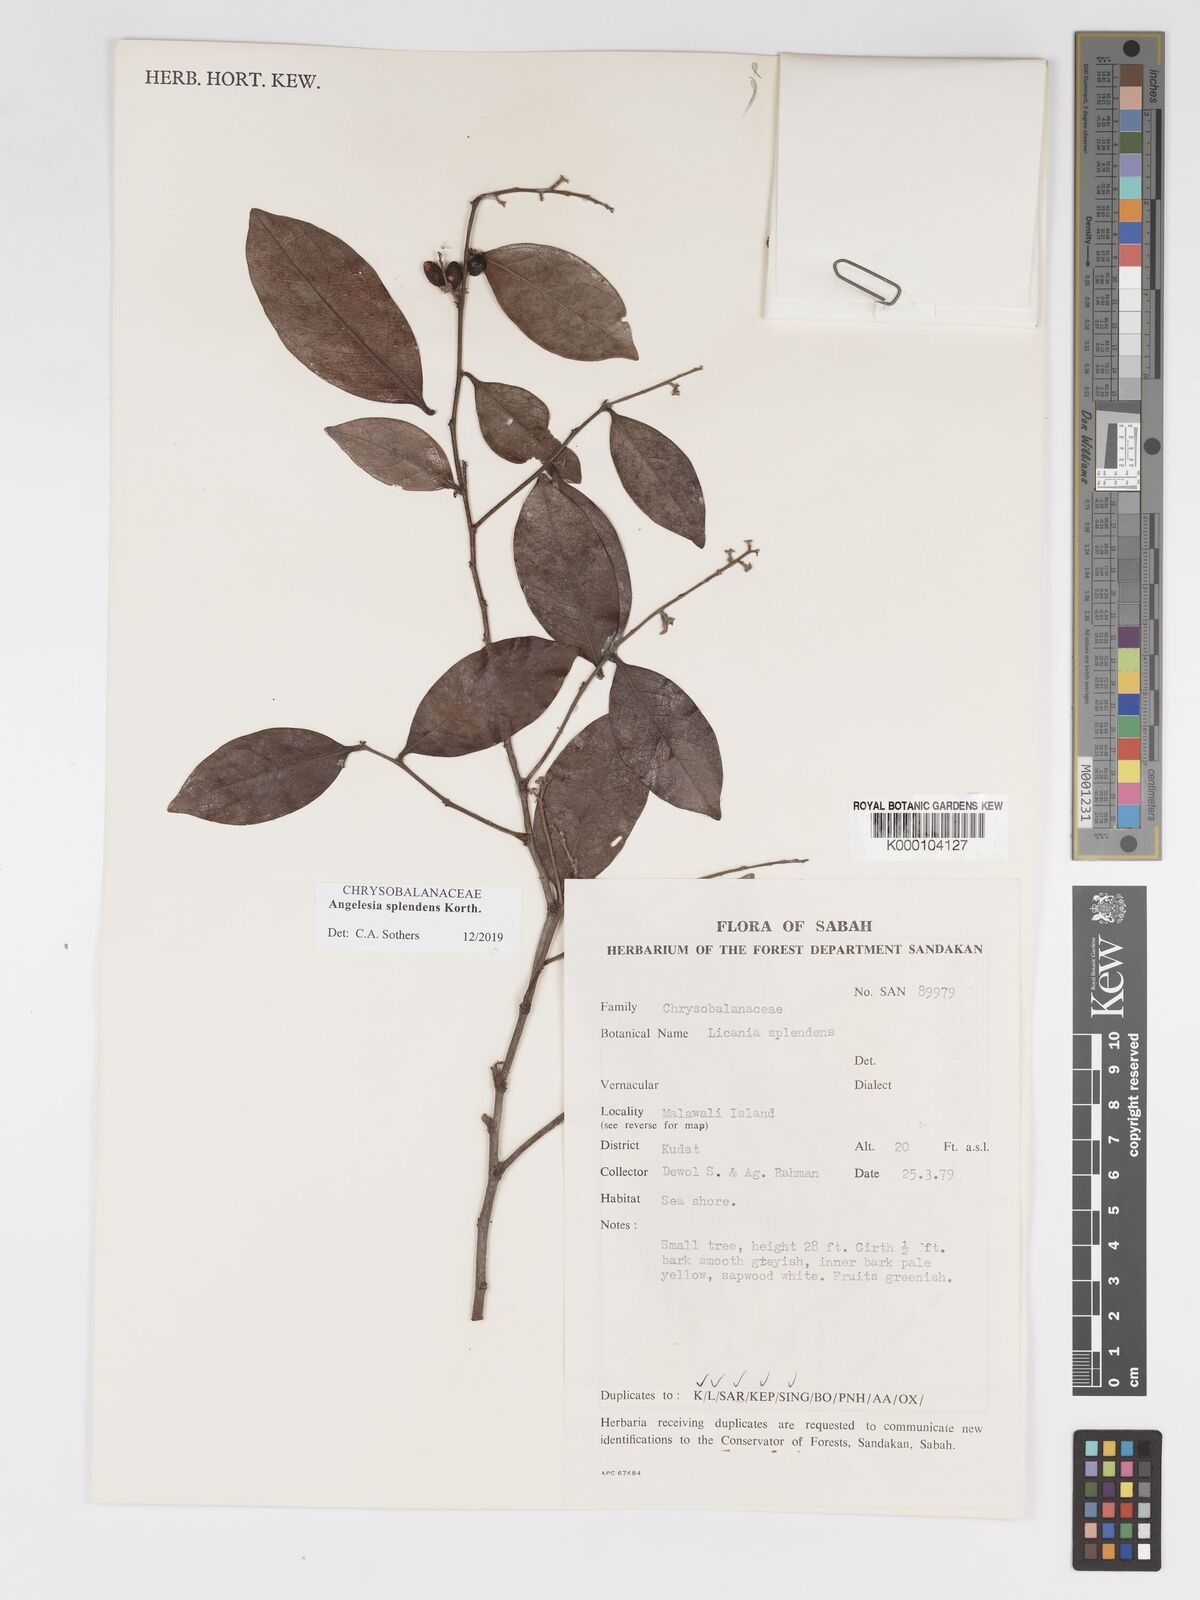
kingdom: Plantae
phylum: Tracheophyta
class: Magnoliopsida
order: Malpighiales
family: Chrysobalanaceae
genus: Angelesia
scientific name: Angelesia splendens
